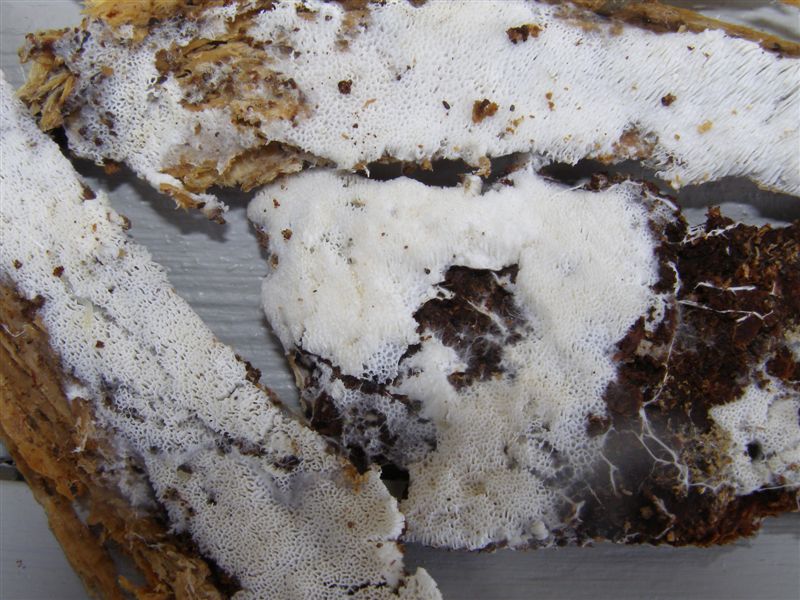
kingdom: Fungi
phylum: Basidiomycota
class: Agaricomycetes
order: Trechisporales
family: Sistotremataceae
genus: Trechispora
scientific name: Trechispora mollusca
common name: pyramide-vathinde
